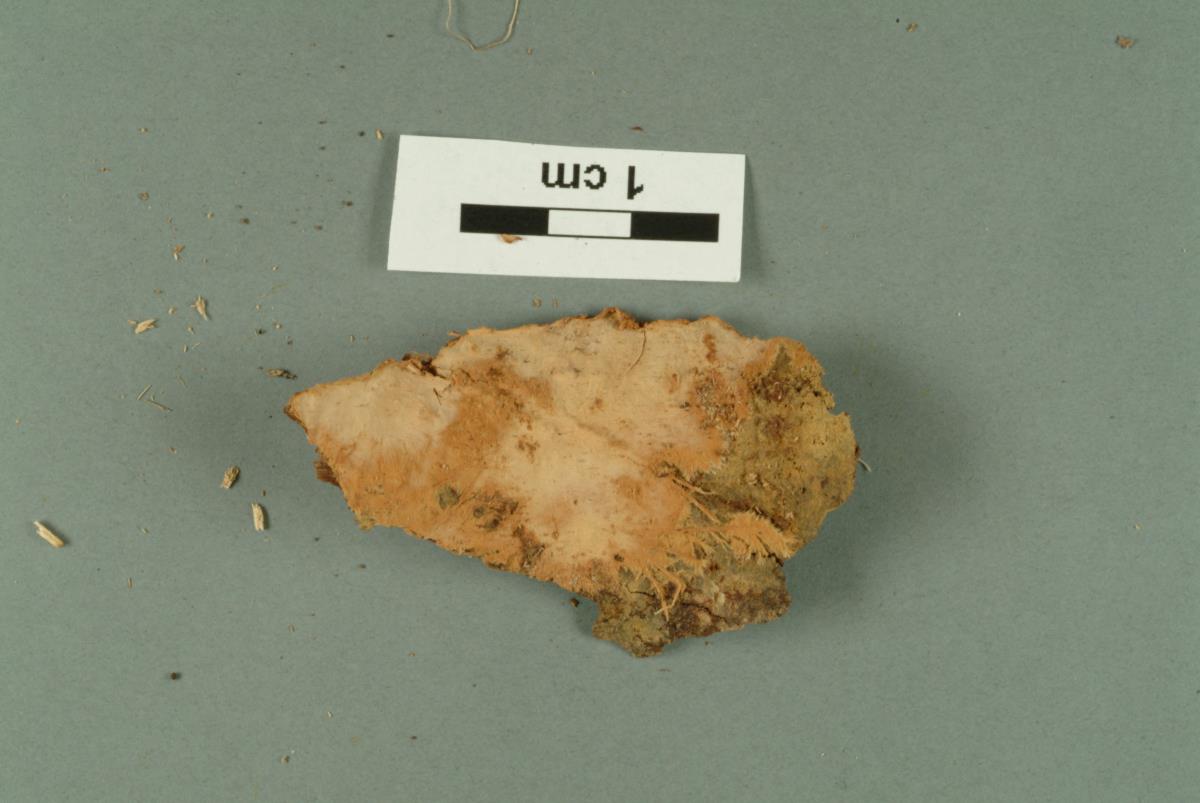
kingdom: Fungi
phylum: Basidiomycota
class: Agaricomycetes
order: Polyporales
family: Phanerochaetaceae
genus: Rhizochaete
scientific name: Rhizochaete radicata
